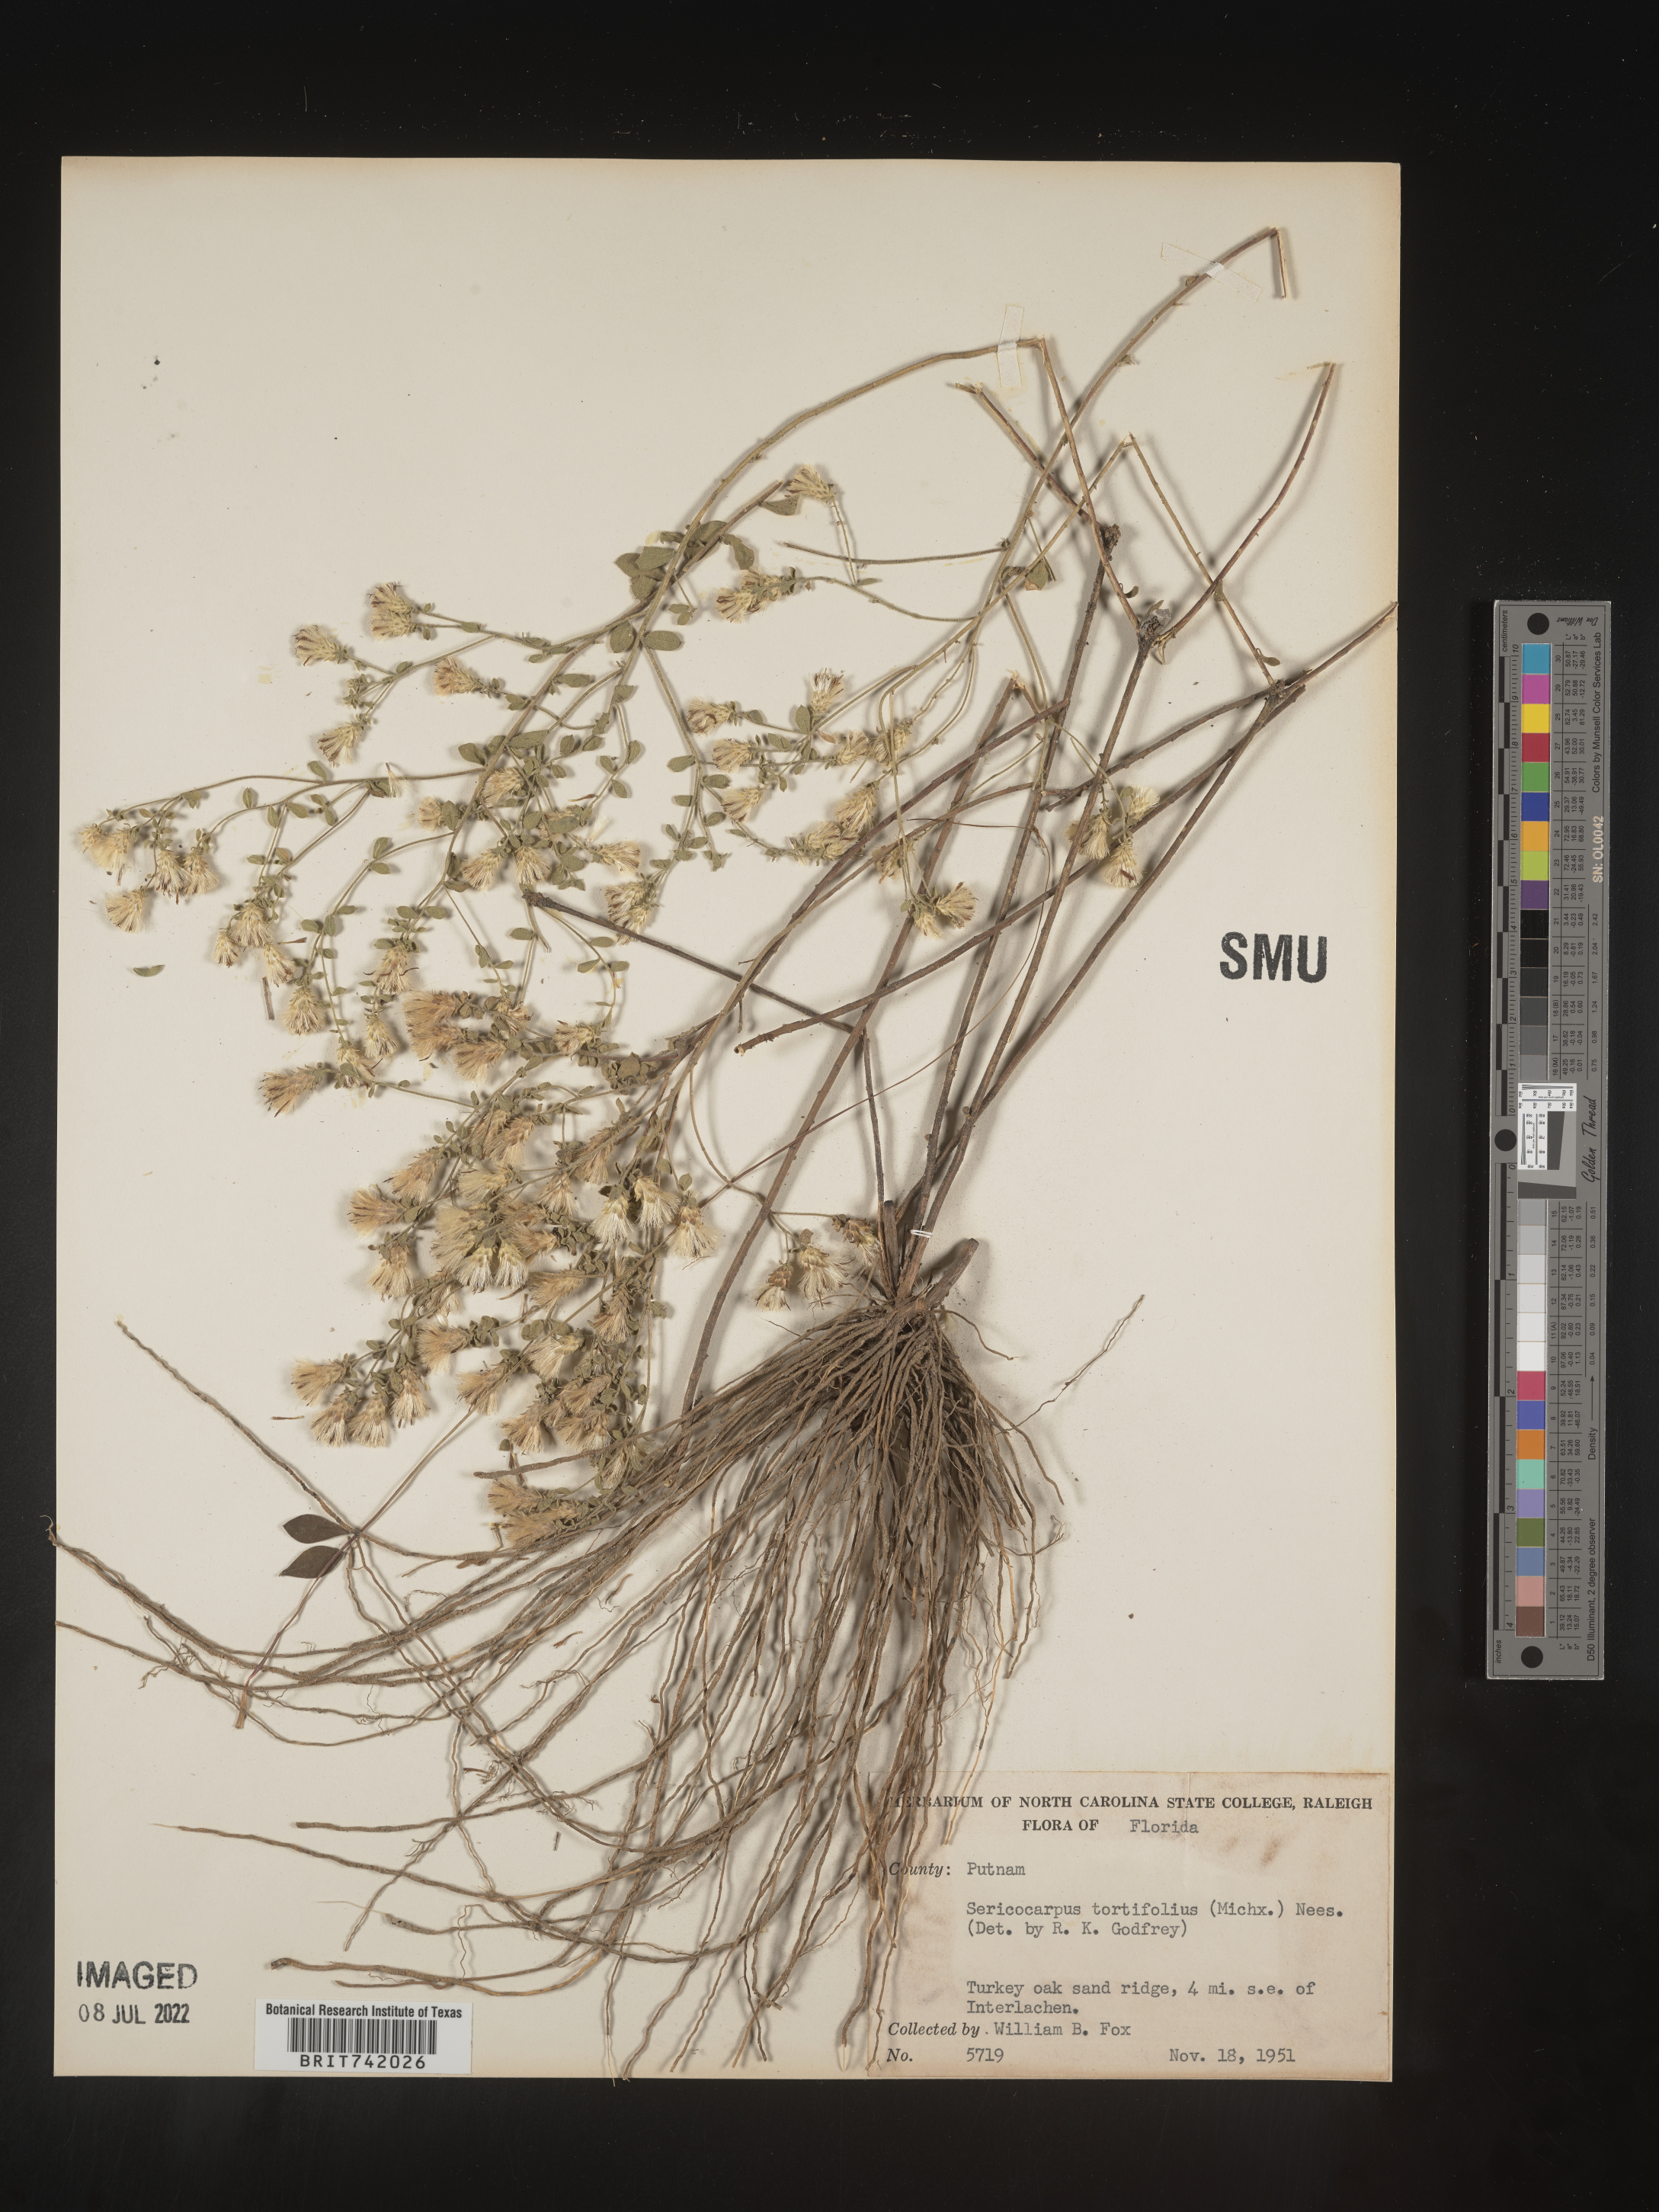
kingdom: Plantae
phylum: Tracheophyta
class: Magnoliopsida
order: Asterales
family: Asteraceae
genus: Sericocarpus
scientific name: Sericocarpus tortifolius
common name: Dixie aster
